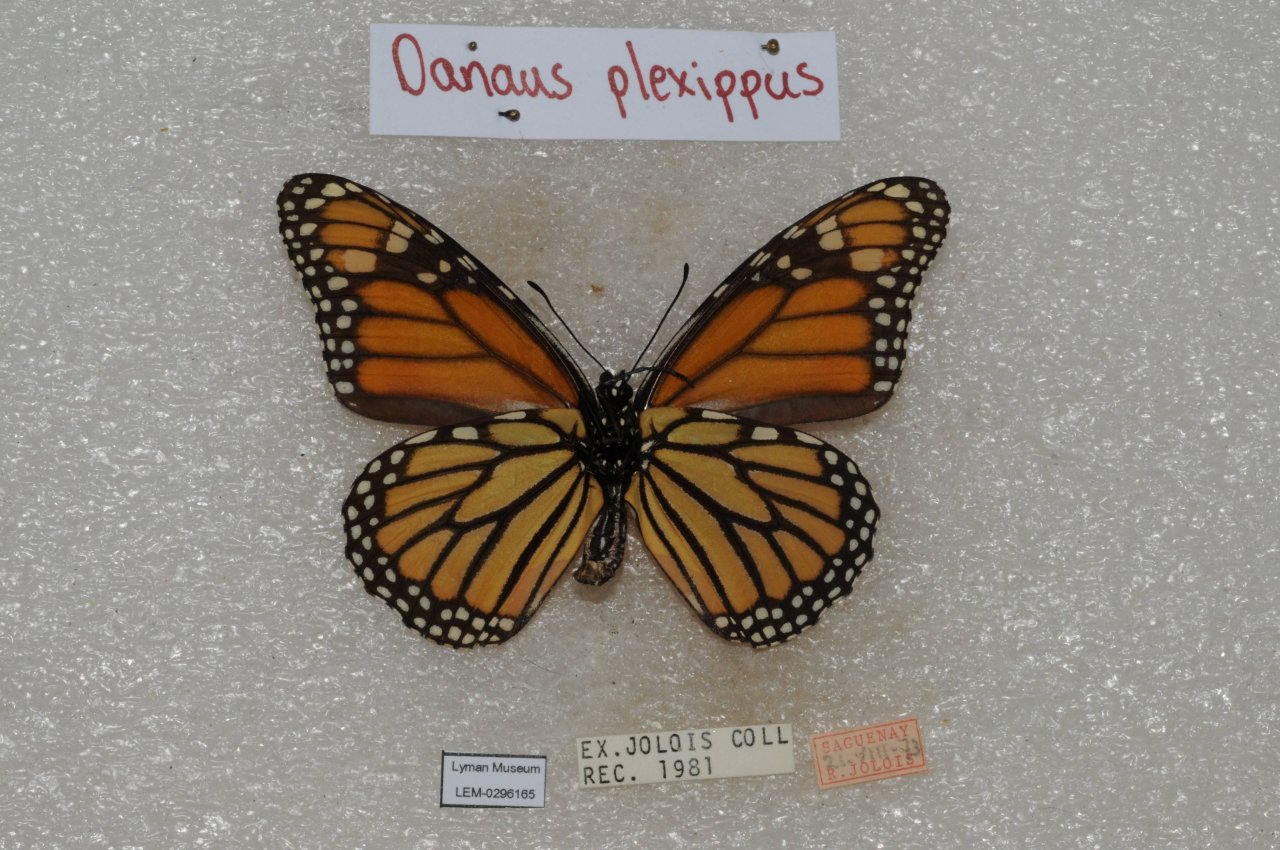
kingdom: Animalia
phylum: Arthropoda
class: Insecta
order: Lepidoptera
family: Nymphalidae
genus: Danaus
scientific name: Danaus plexippus
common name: Monarch
